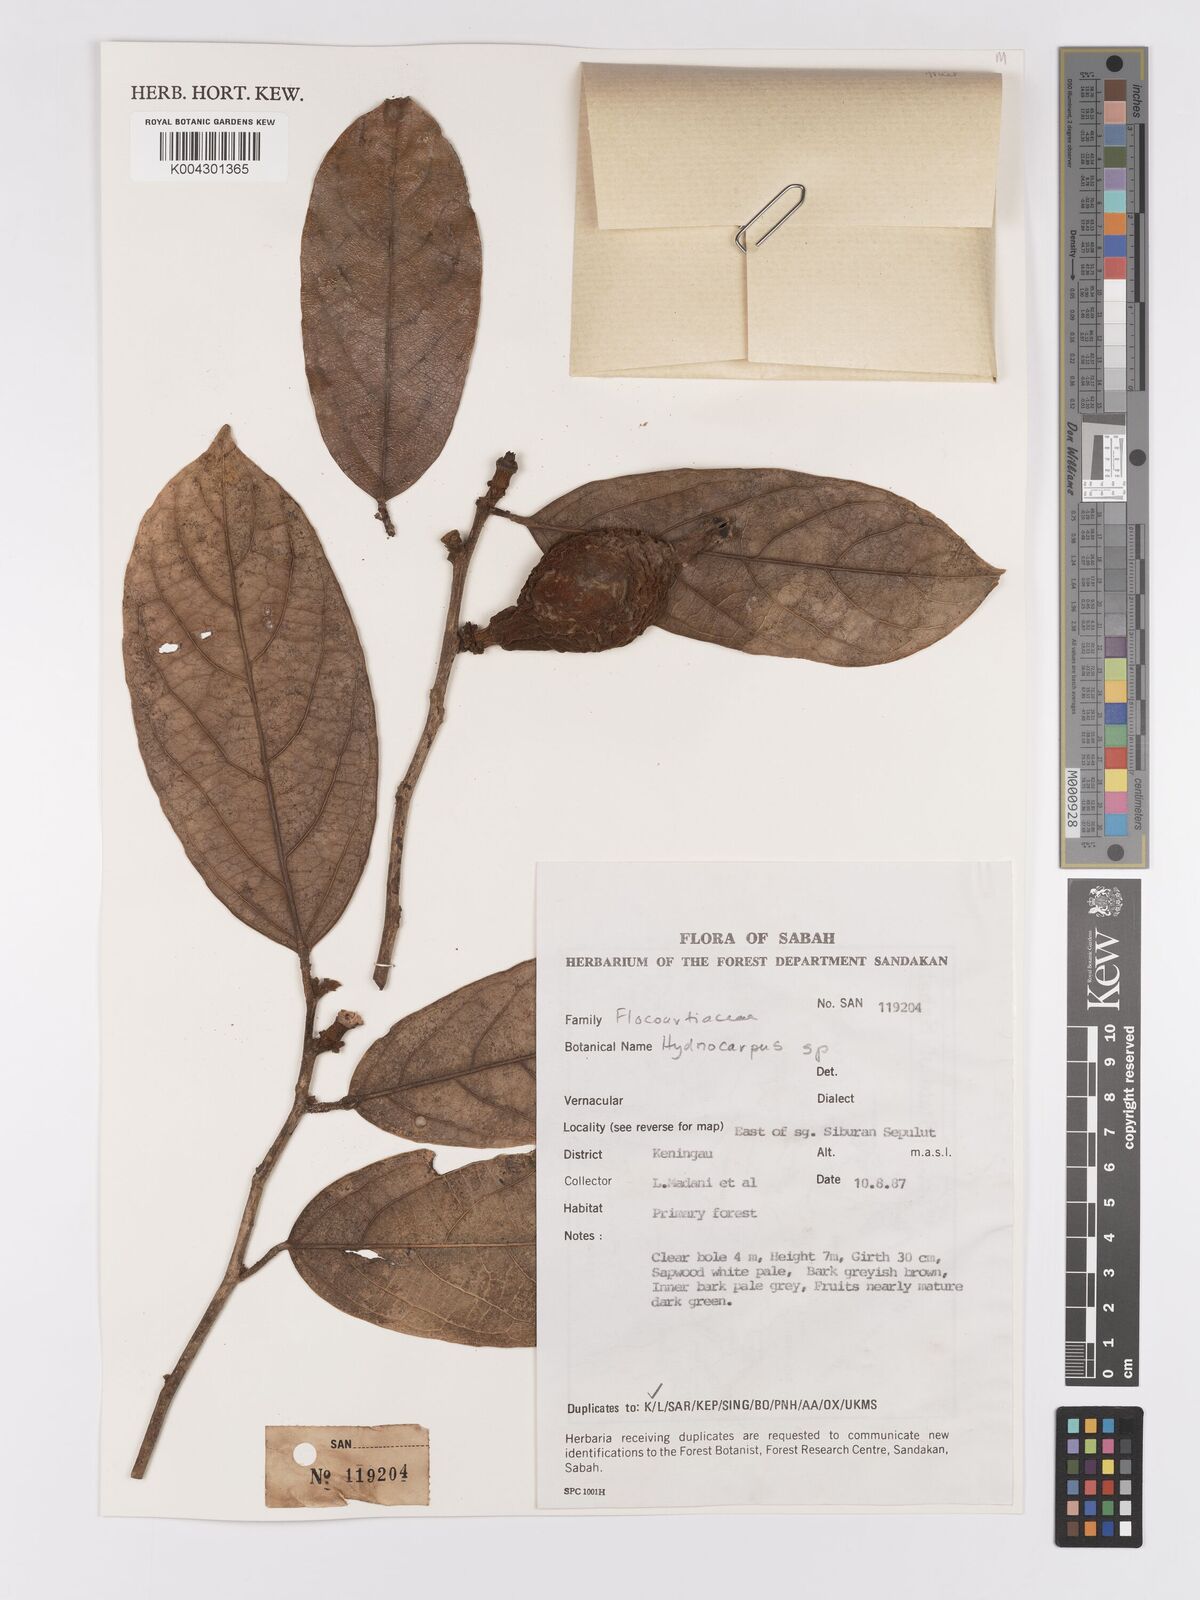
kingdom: Plantae
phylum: Tracheophyta
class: Magnoliopsida
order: Malpighiales
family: Achariaceae
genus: Hydnocarpus
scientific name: Hydnocarpus
